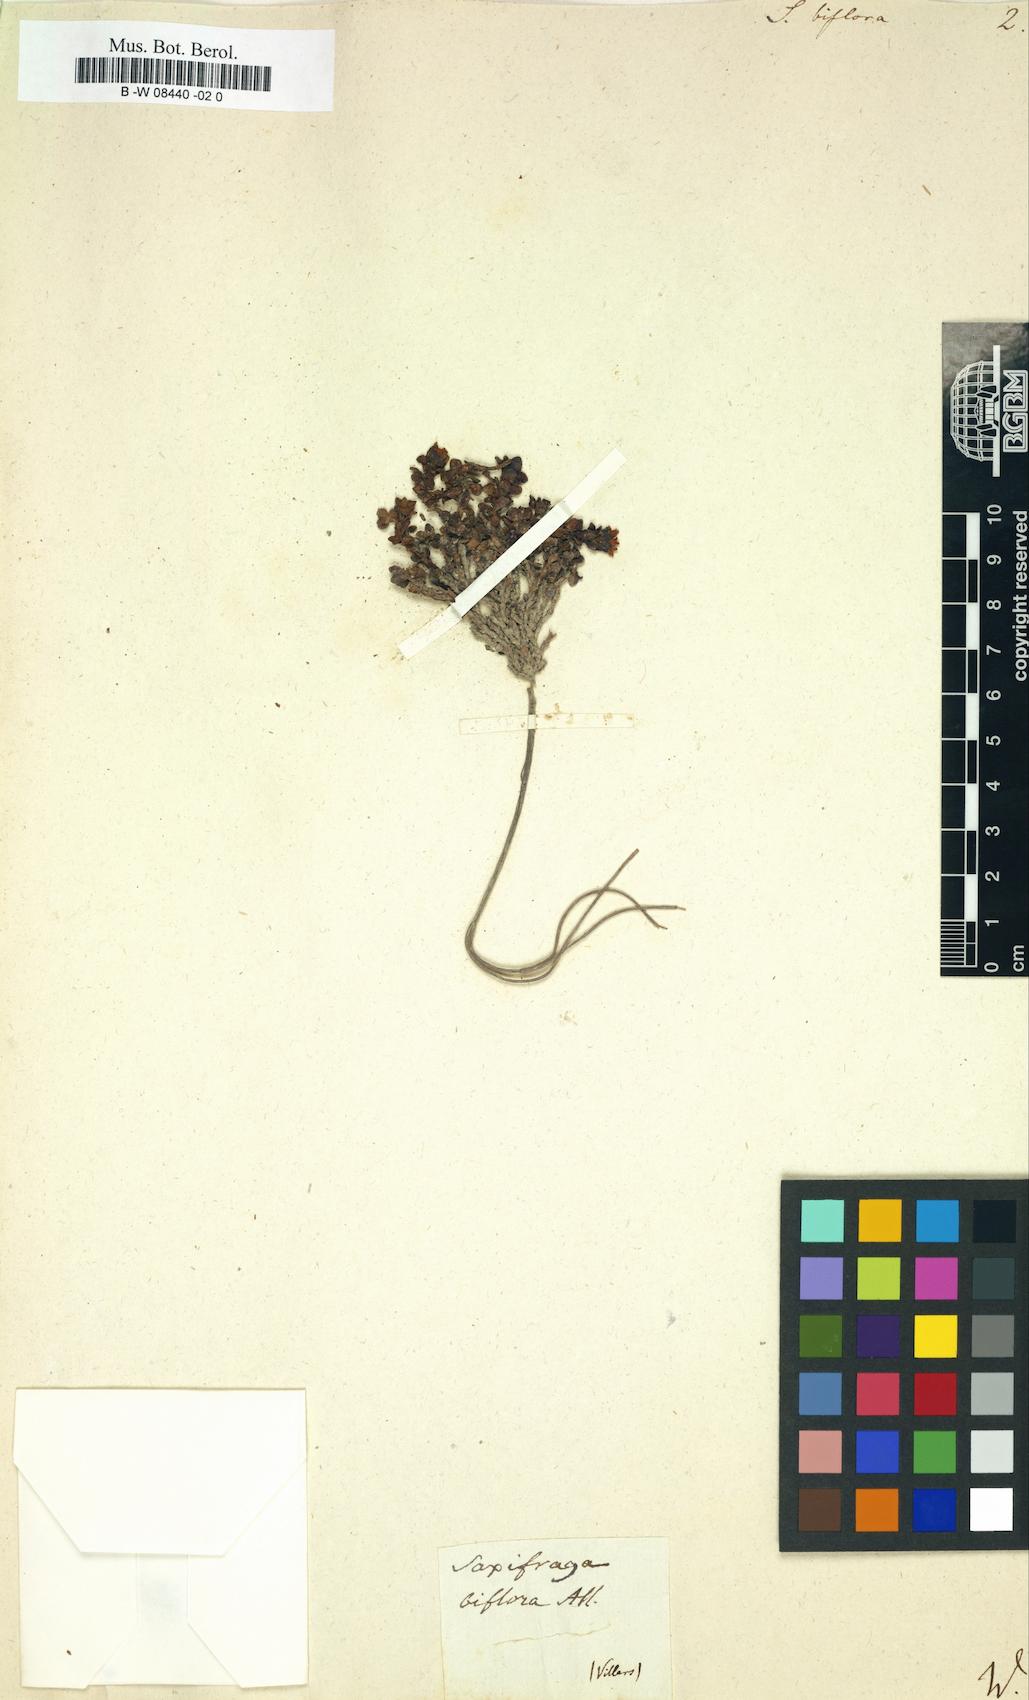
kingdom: Plantae
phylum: Tracheophyta
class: Magnoliopsida
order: Saxifragales
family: Saxifragaceae
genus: Saxifraga
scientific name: Saxifraga biflora
